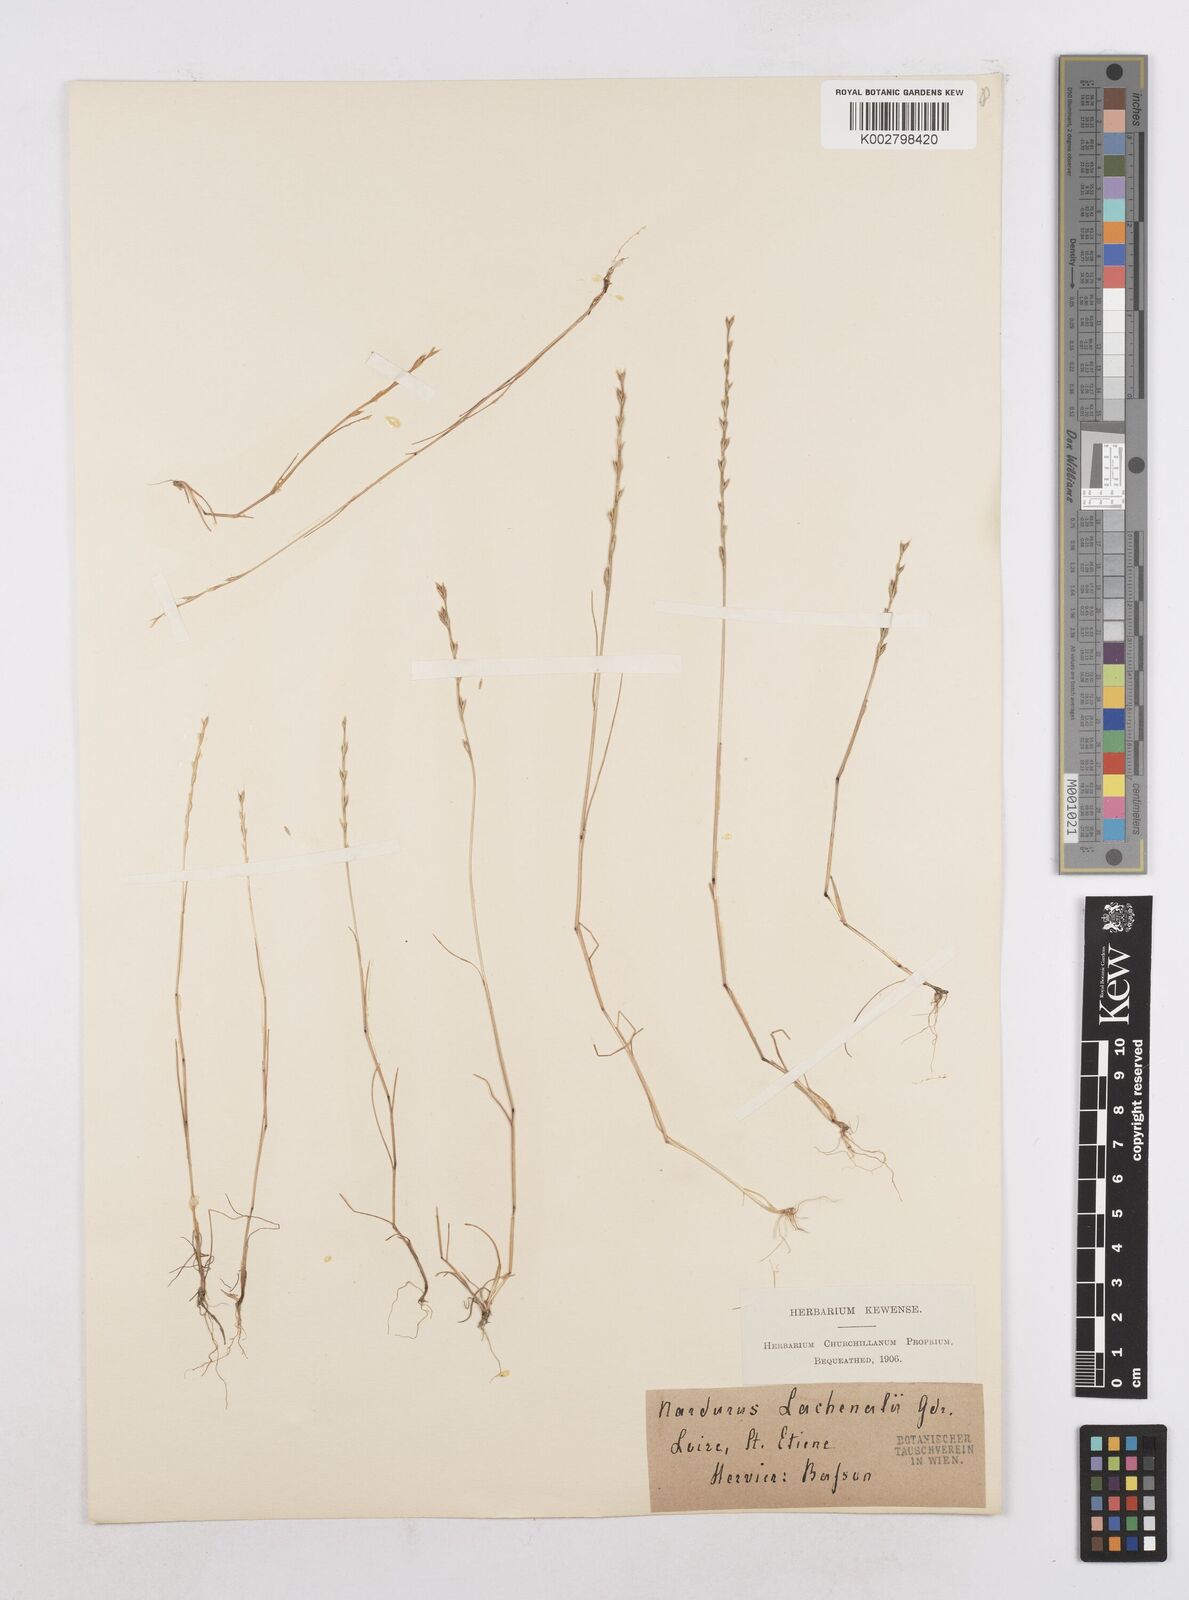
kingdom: Plantae
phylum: Tracheophyta
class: Liliopsida
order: Poales
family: Poaceae
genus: Festuca
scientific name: Festuca lachenalii
